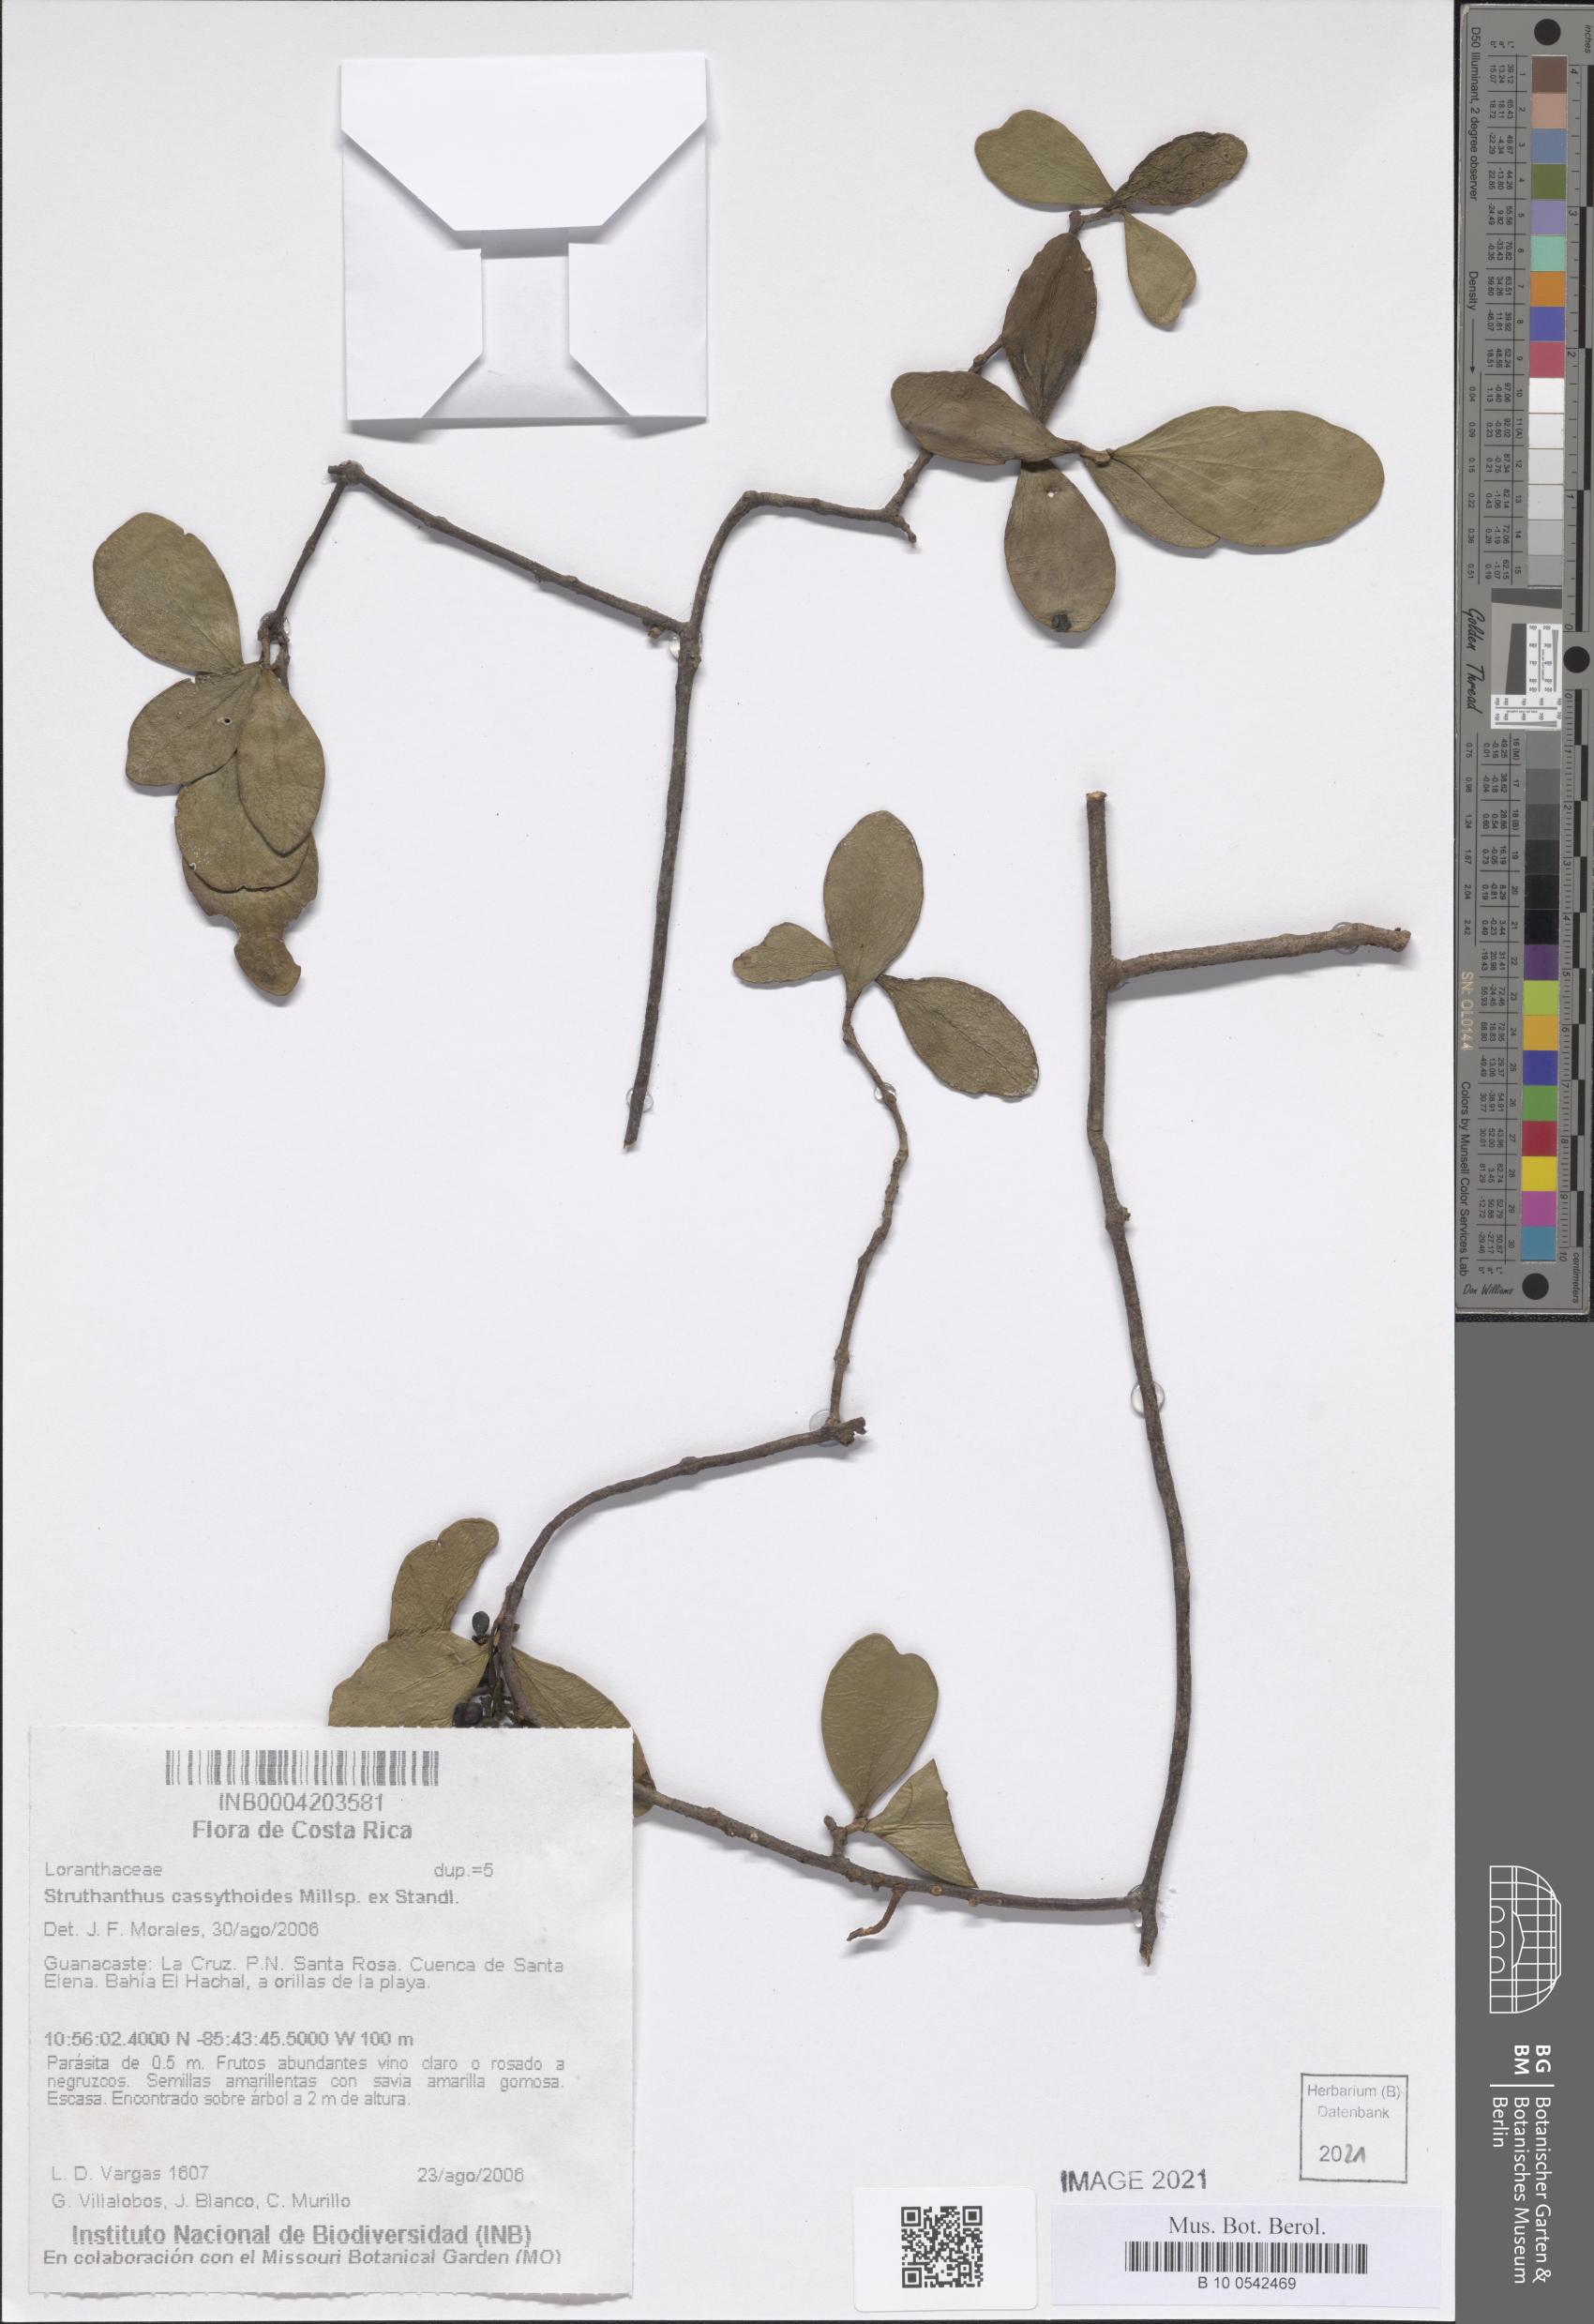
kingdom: Plantae
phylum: Tracheophyta
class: Magnoliopsida
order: Santalales
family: Loranthaceae
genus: Struthanthus
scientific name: Struthanthus cassythoides
